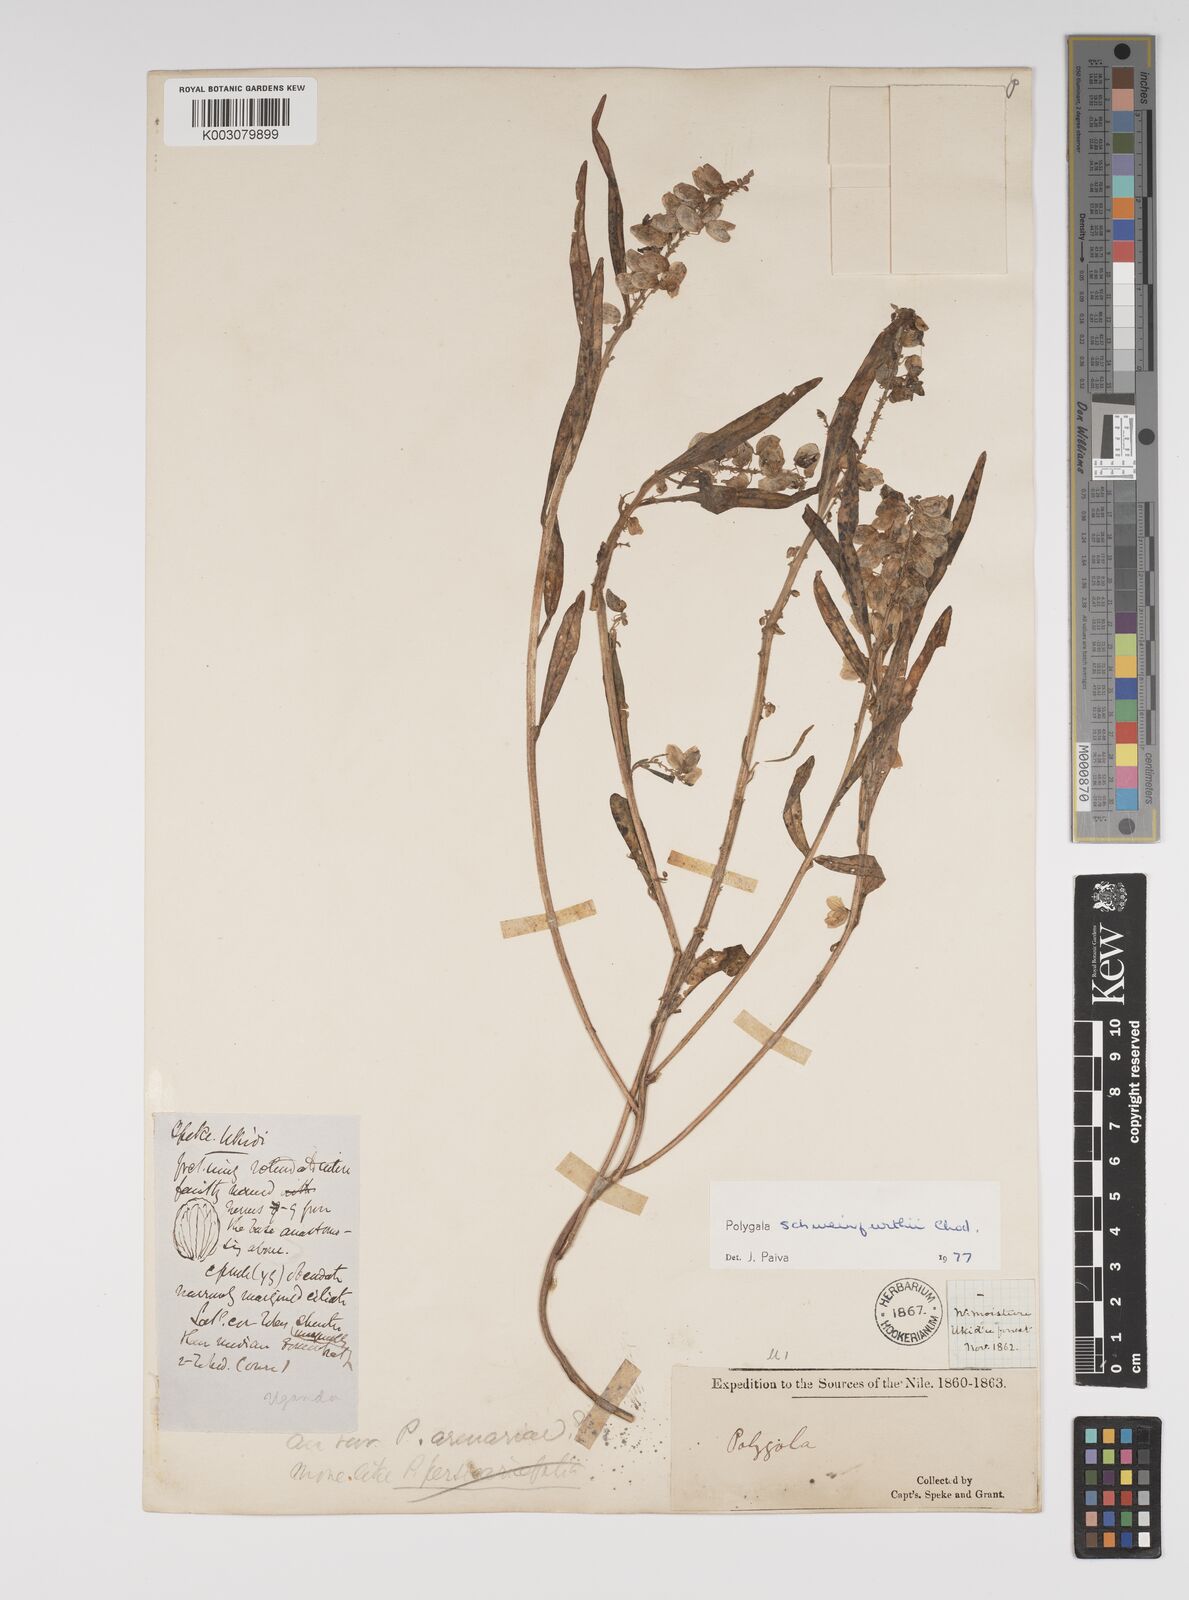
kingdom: Plantae
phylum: Tracheophyta
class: Magnoliopsida
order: Fabales
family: Polygalaceae
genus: Polygala
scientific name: Polygala schweinfurthii
